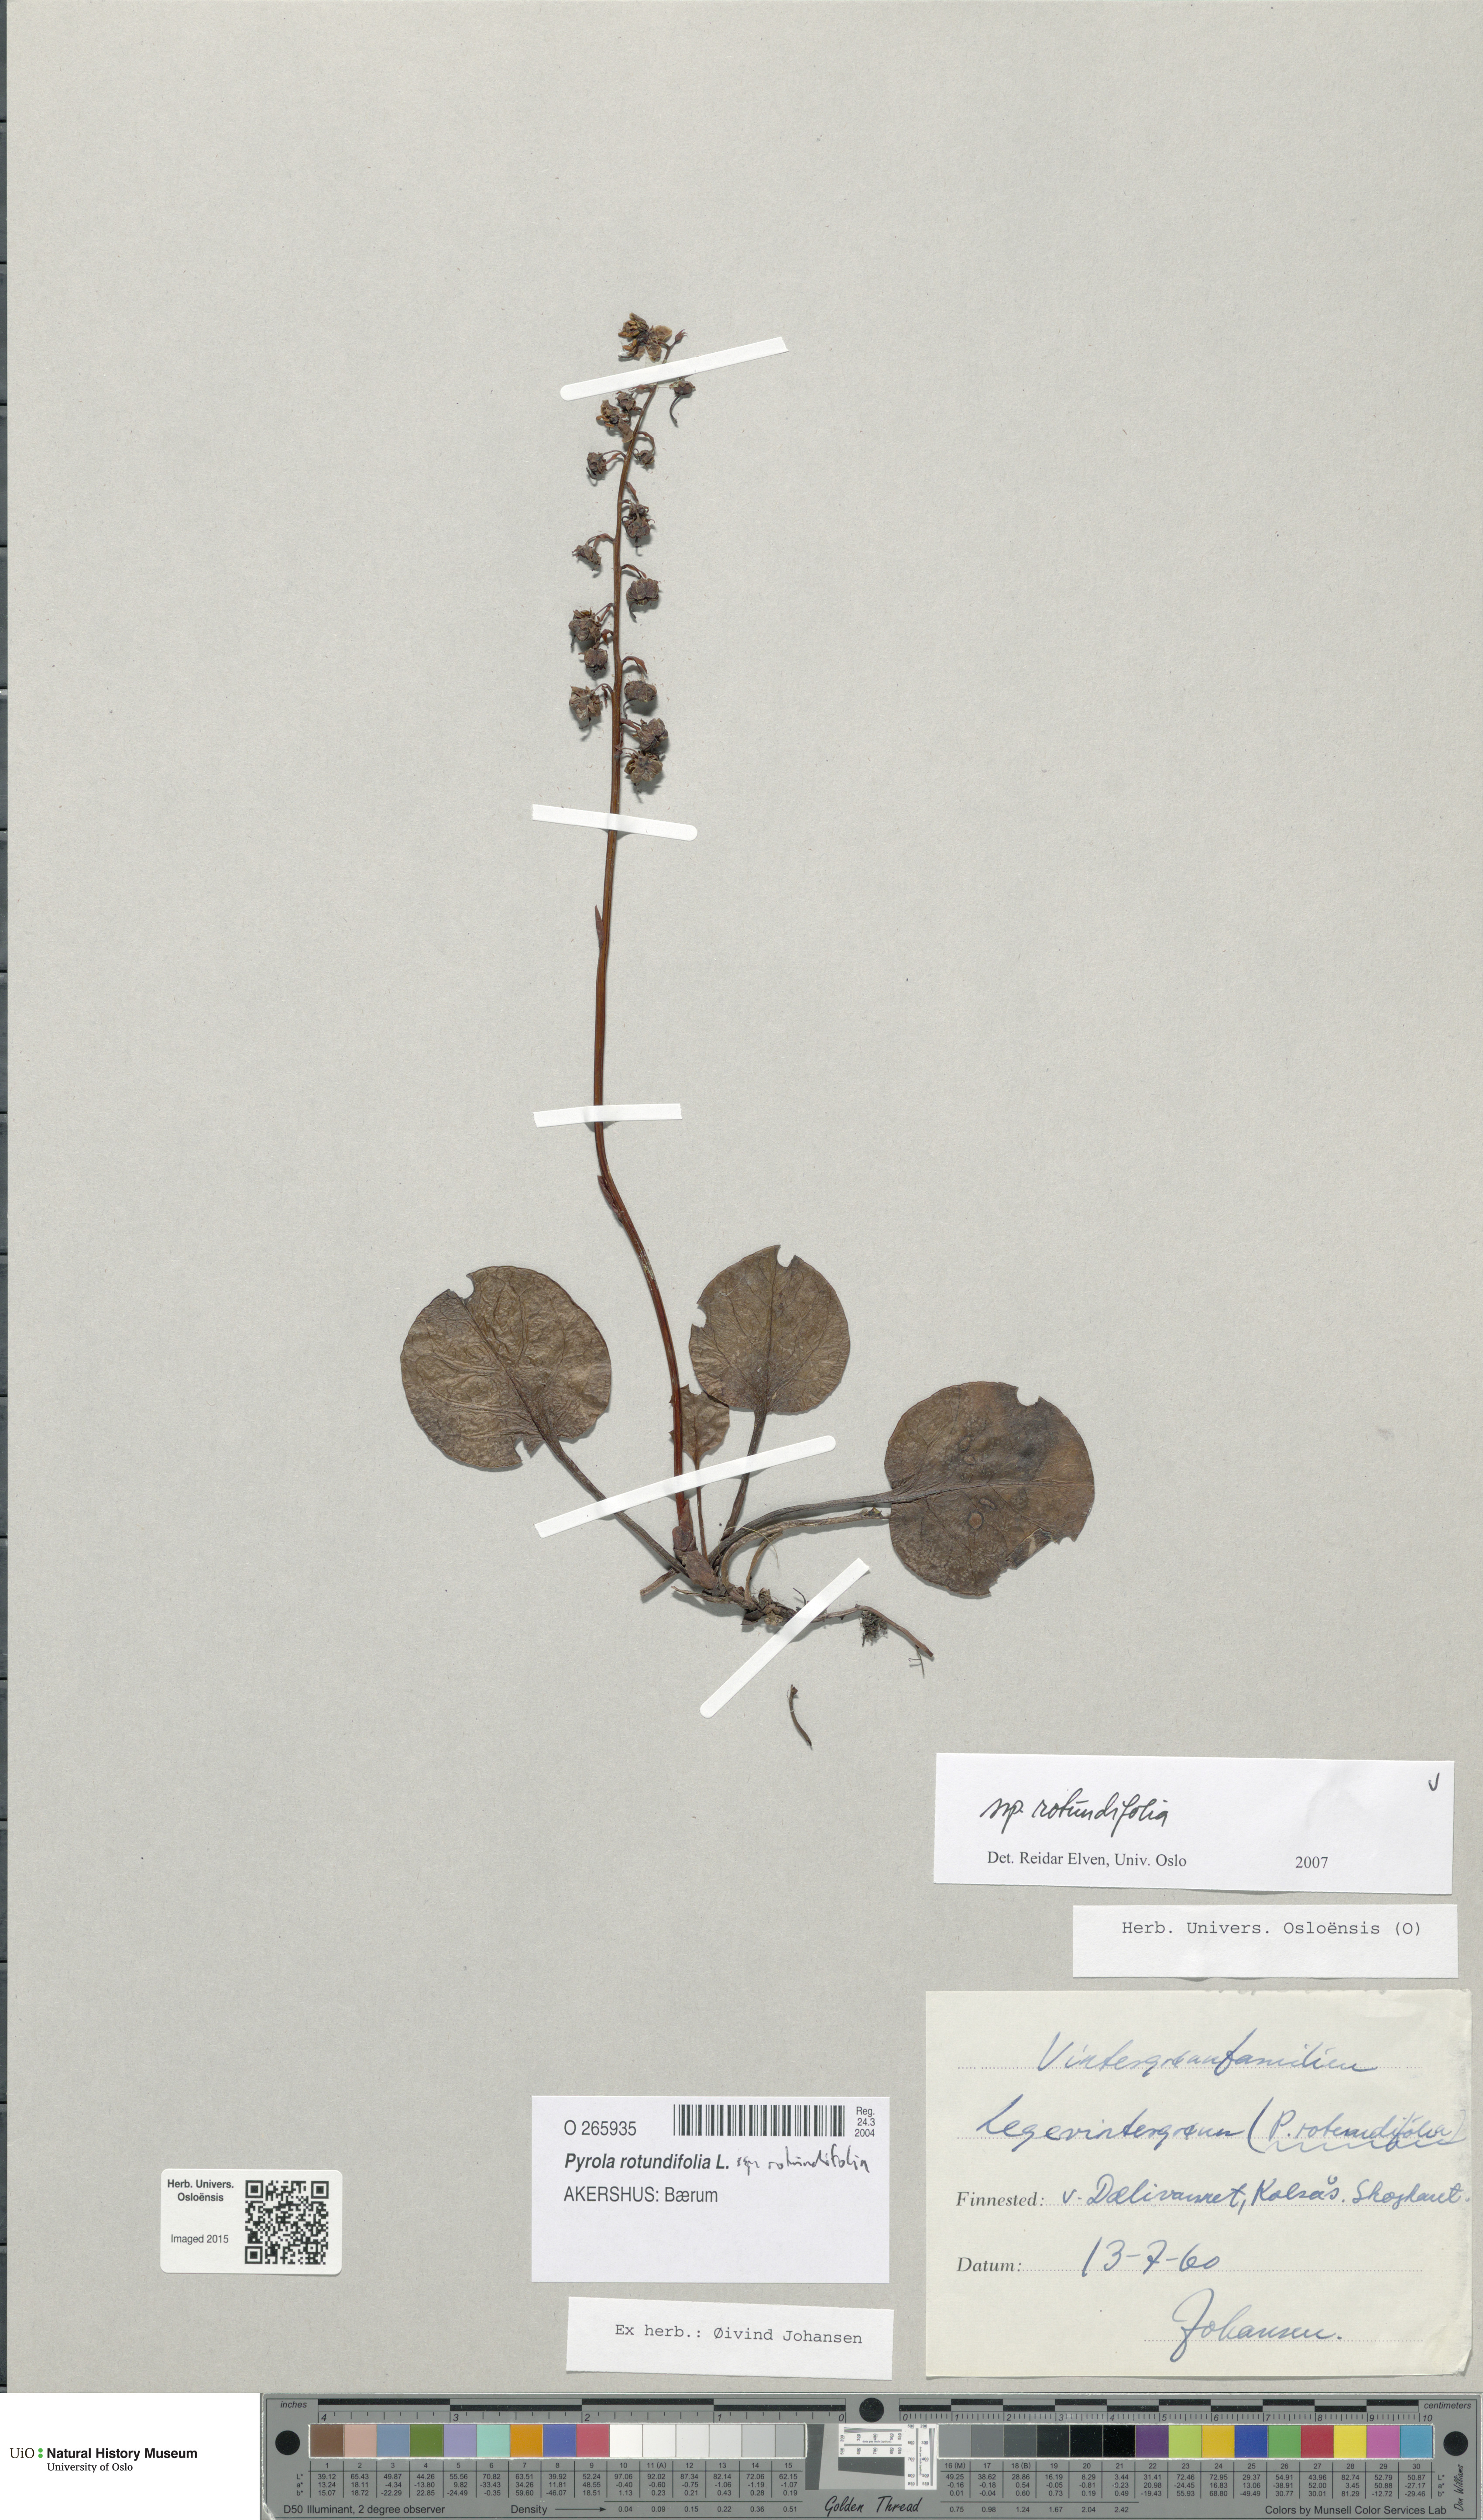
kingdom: Plantae
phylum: Tracheophyta
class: Magnoliopsida
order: Ericales
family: Ericaceae
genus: Pyrola
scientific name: Pyrola rotundifolia
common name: Round-leaved wintergreen
